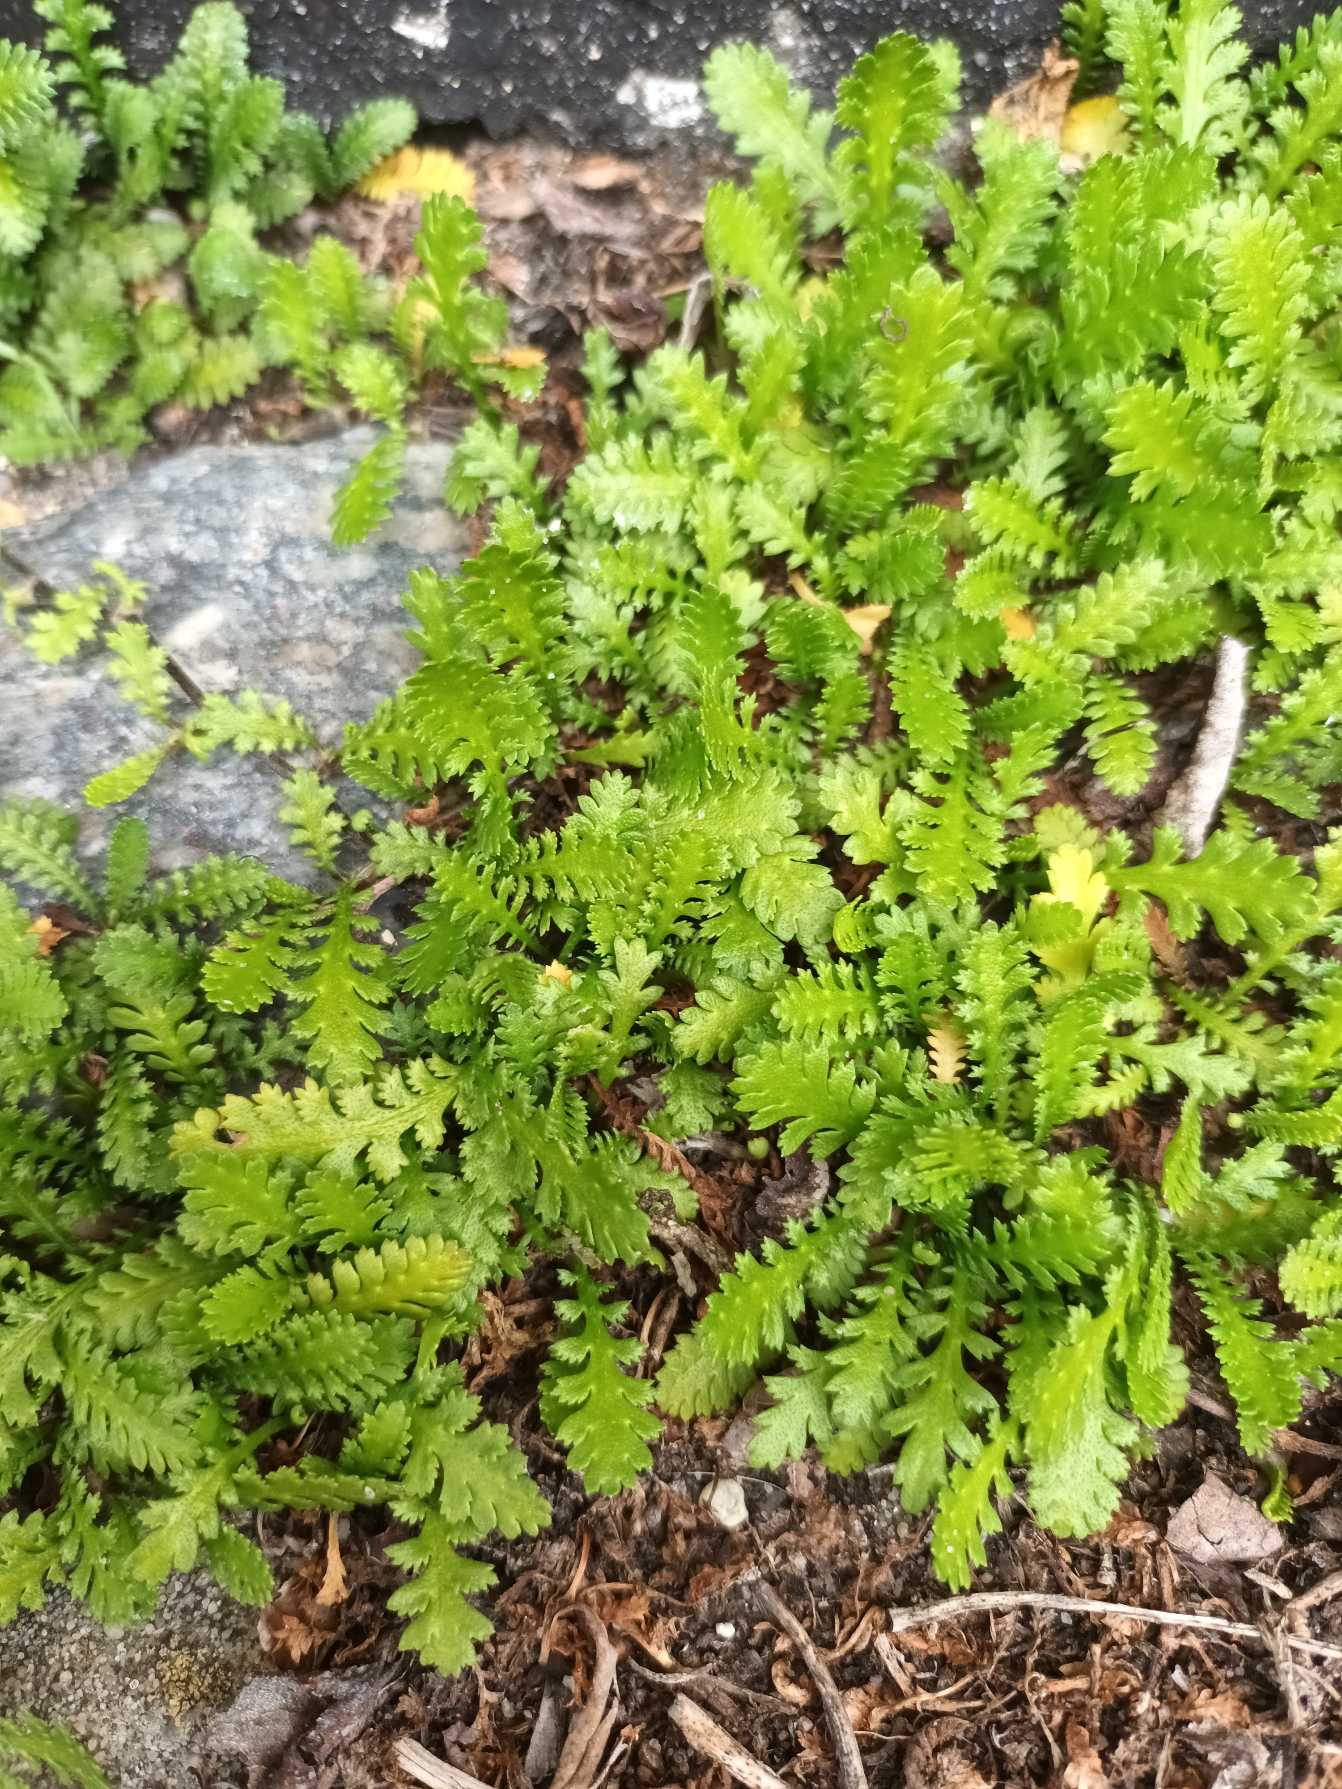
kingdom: Plantae
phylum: Tracheophyta
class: Magnoliopsida
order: Asterales
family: Asteraceae
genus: Leptinella
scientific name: Leptinella squalida
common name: Trædebregne
